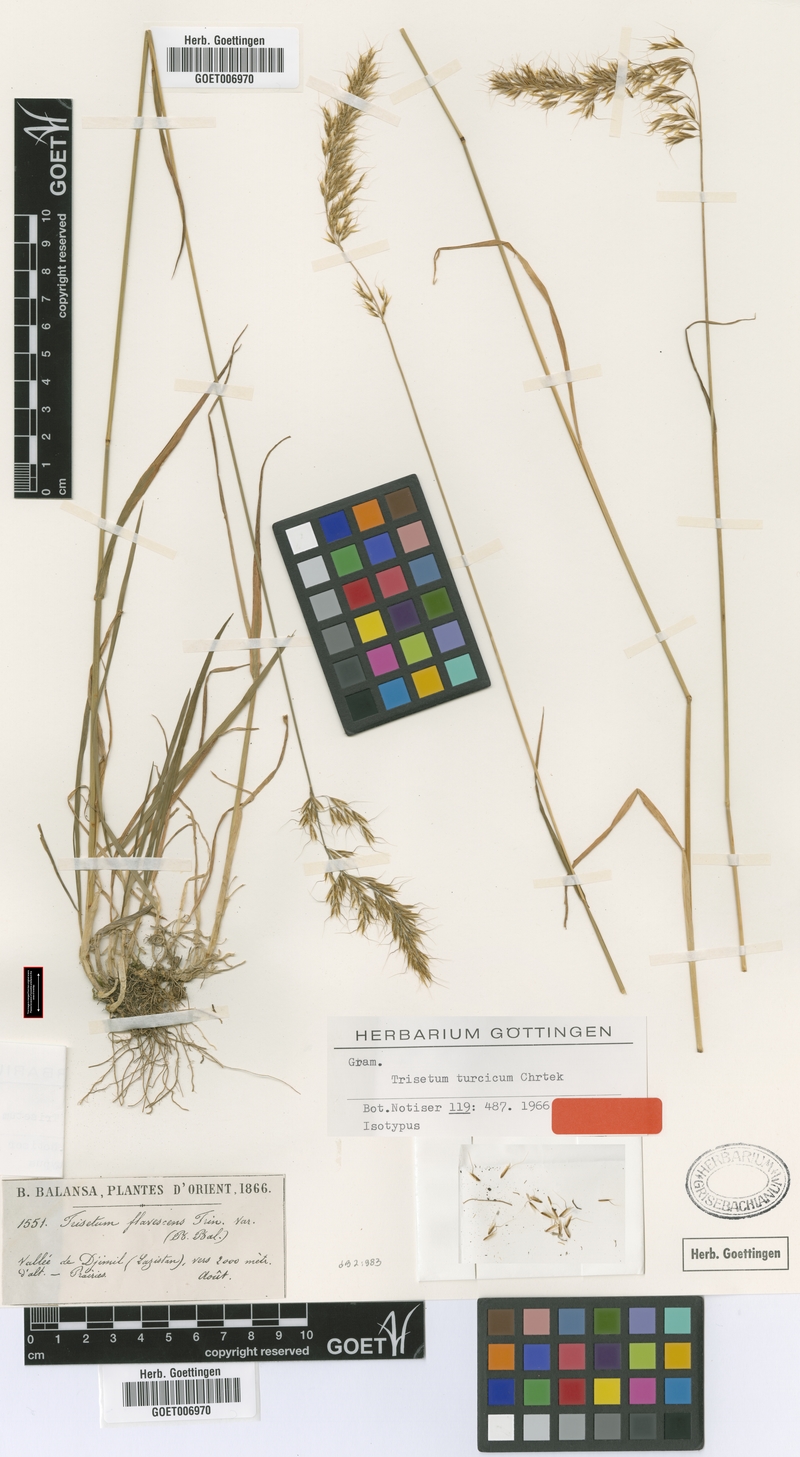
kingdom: Plantae
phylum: Tracheophyta
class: Liliopsida
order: Poales
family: Poaceae
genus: Sibirotrisetum
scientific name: Sibirotrisetum turcicum
